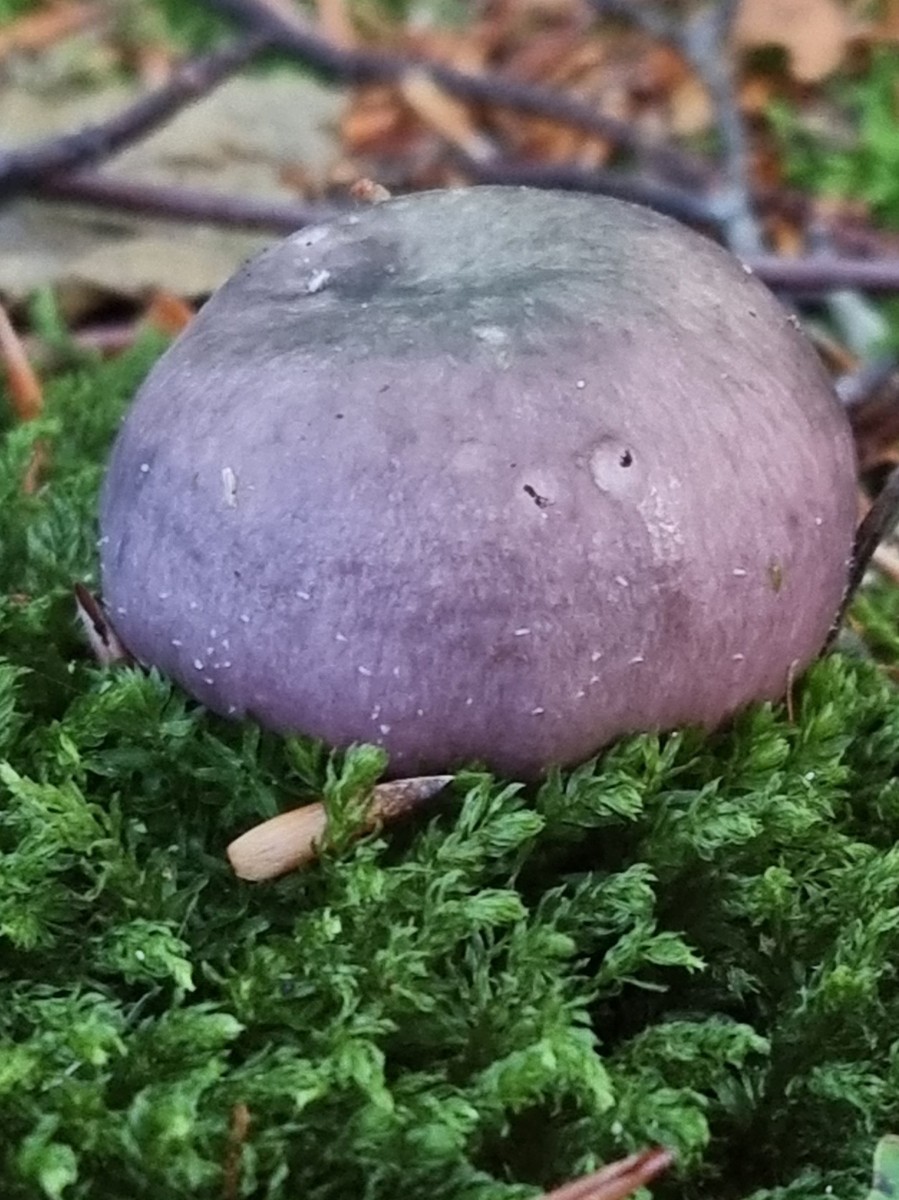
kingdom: Fungi
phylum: Basidiomycota
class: Agaricomycetes
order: Russulales
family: Russulaceae
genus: Russula
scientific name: Russula
